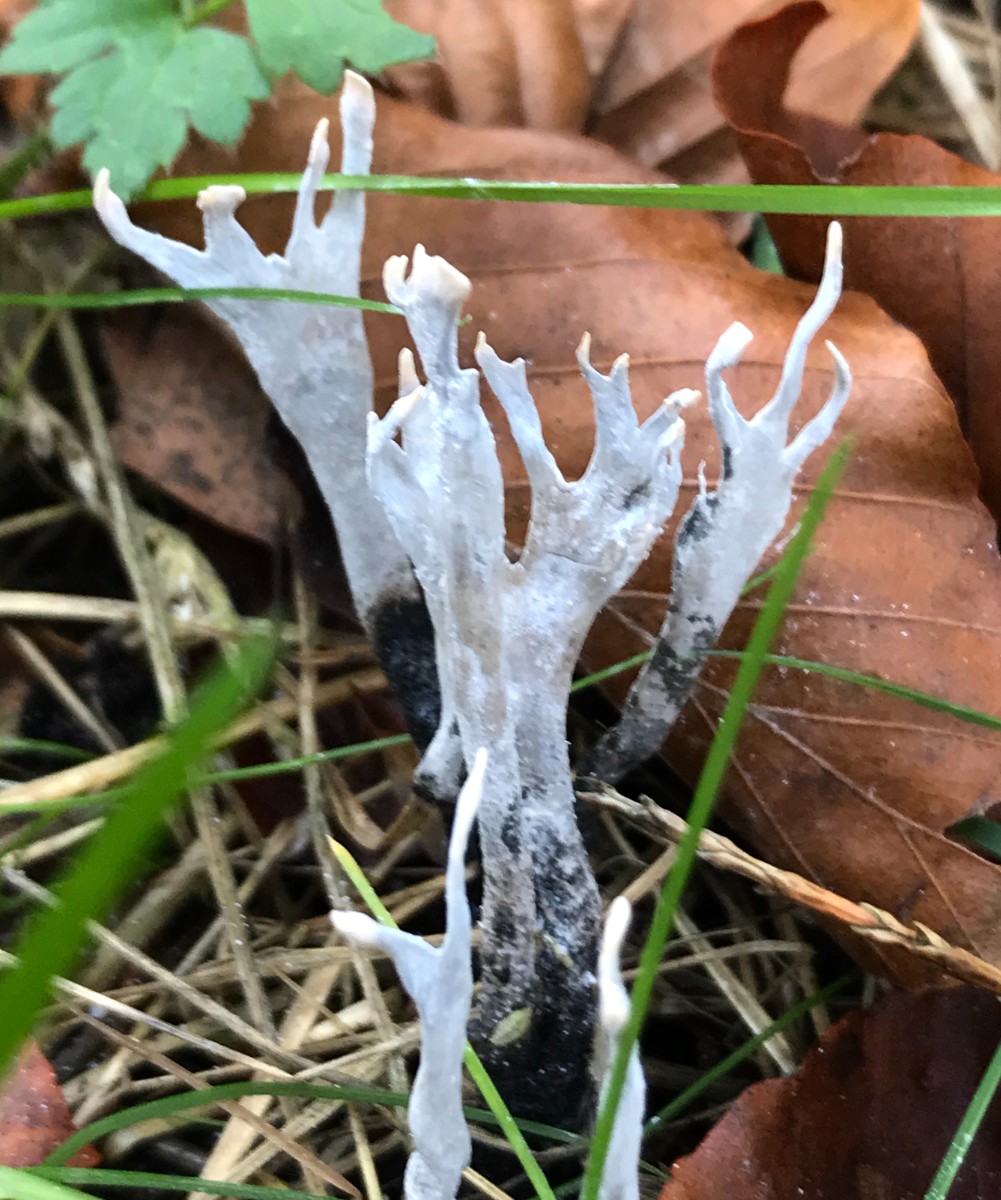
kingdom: Fungi
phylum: Ascomycota
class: Sordariomycetes
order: Xylariales
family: Xylariaceae
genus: Xylaria
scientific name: Xylaria hypoxylon
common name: grenet stødsvamp
